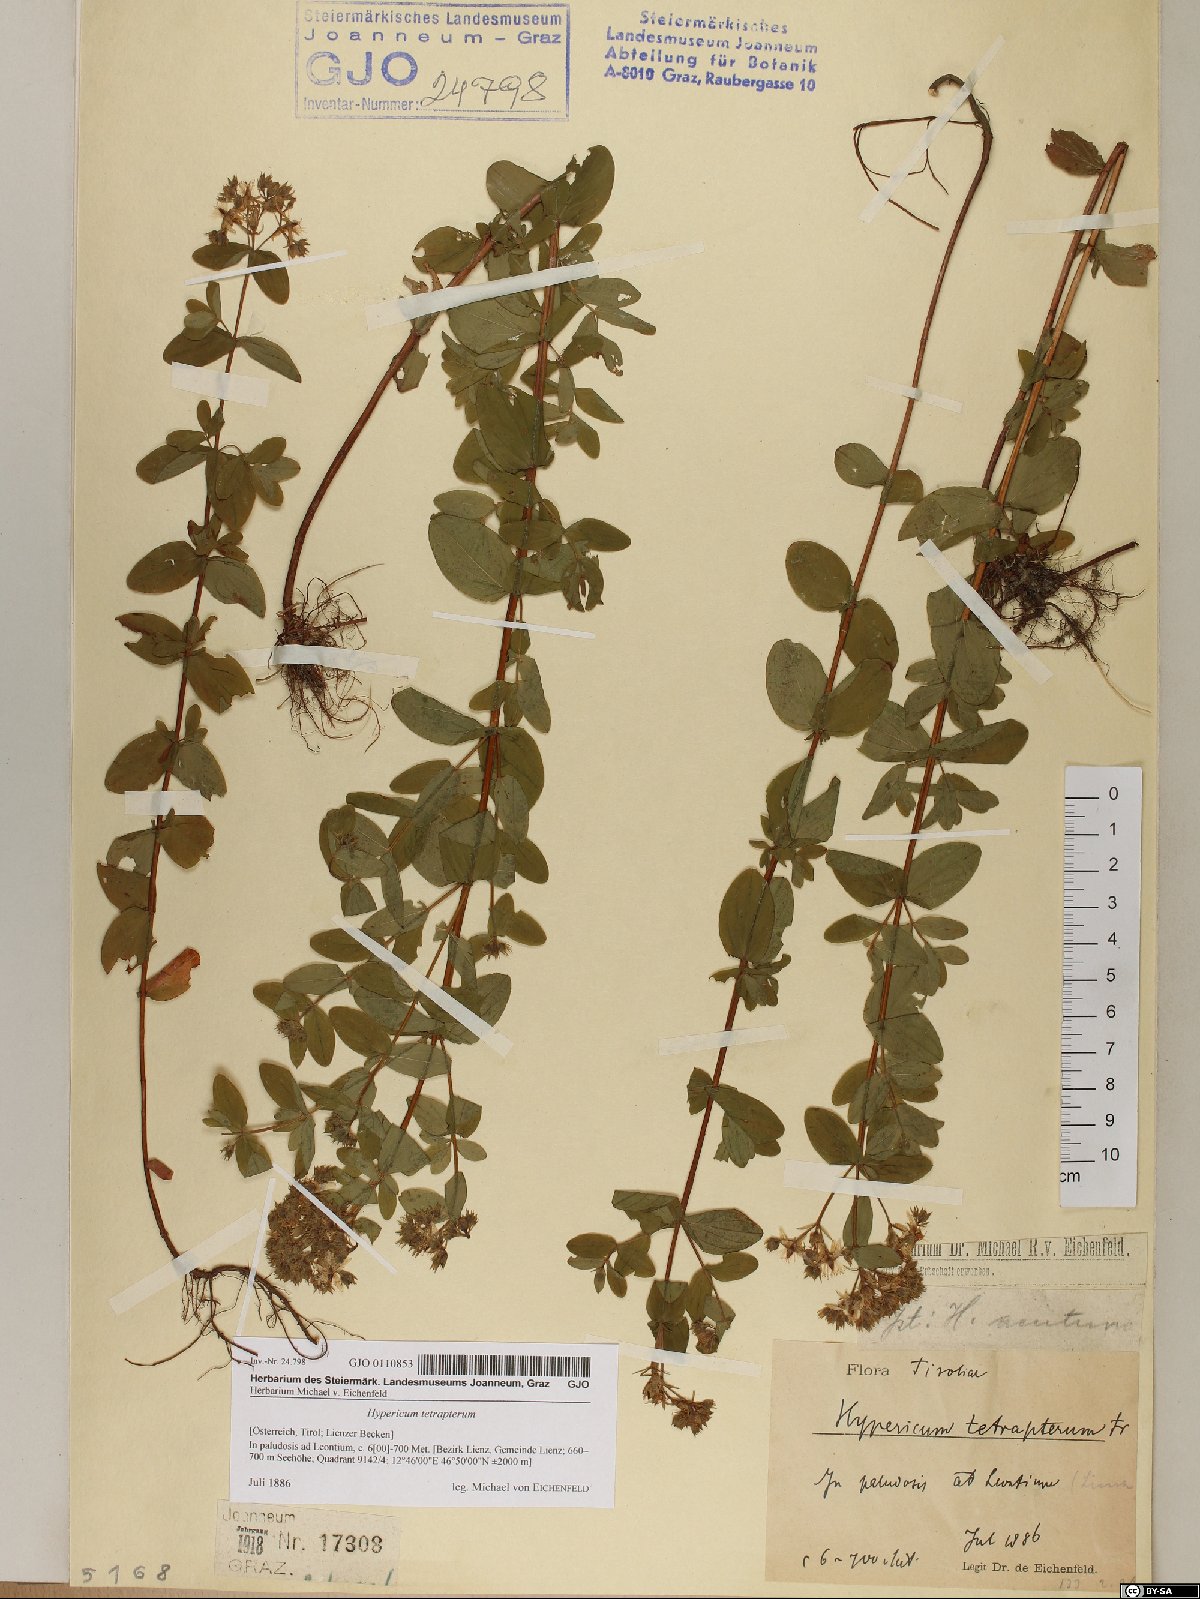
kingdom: Plantae
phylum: Tracheophyta
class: Magnoliopsida
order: Malpighiales
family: Hypericaceae
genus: Hypericum
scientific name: Hypericum tetrapterum
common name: Square-stalked st. john's-wort
